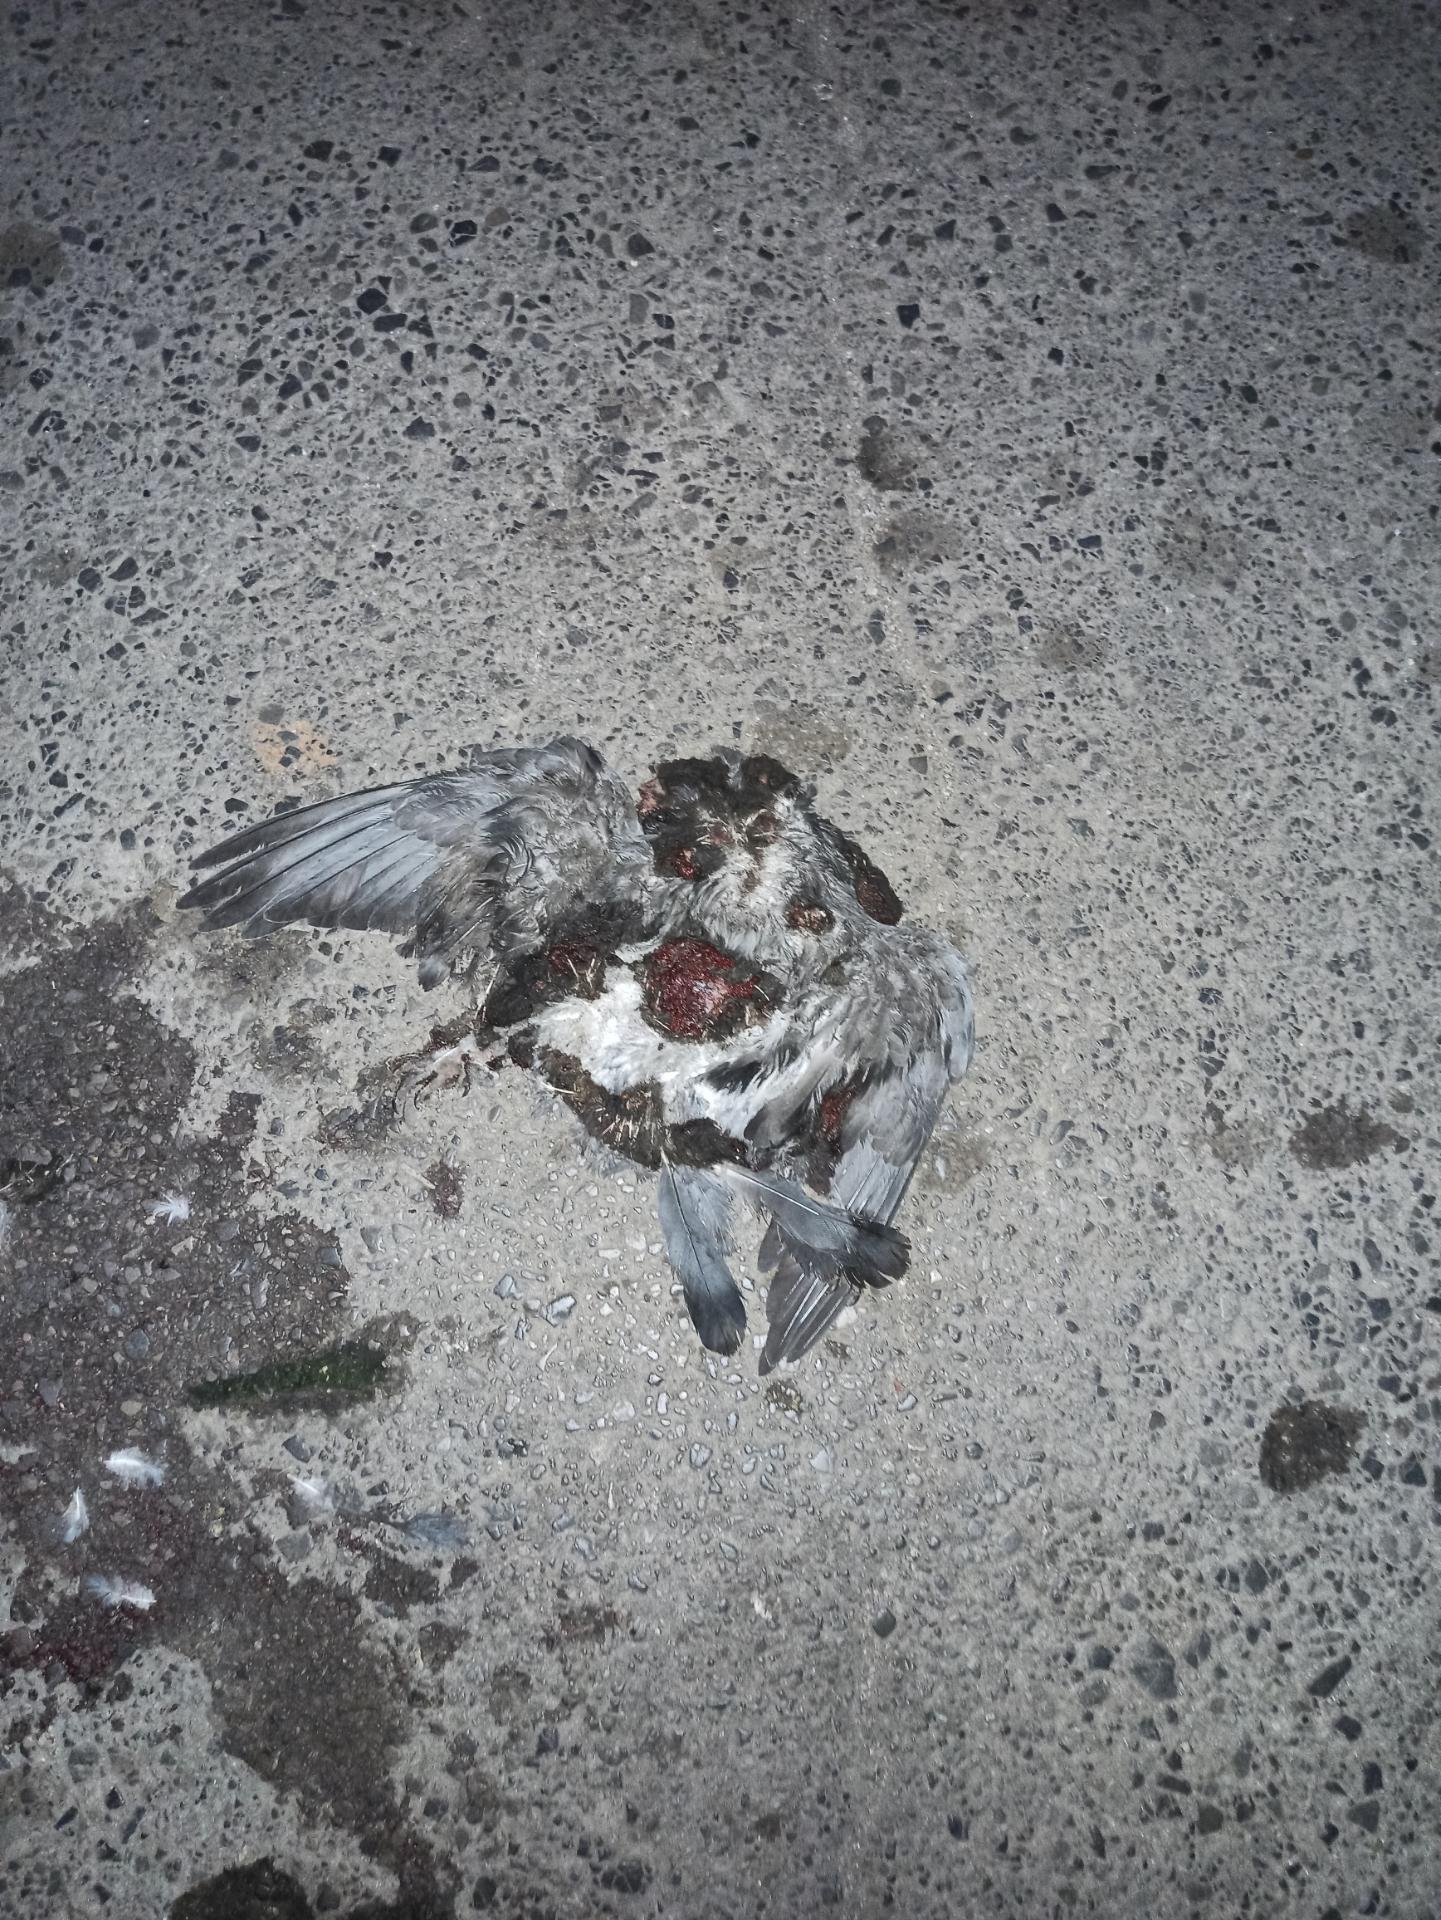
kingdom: Animalia
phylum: Chordata
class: Aves
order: Columbiformes
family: Columbidae
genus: Columba
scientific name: Columba livia
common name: Rock pigeon
